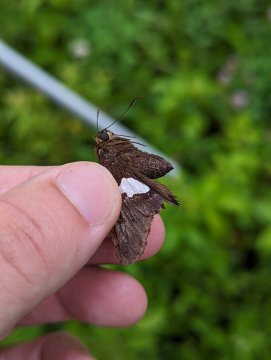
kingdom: Animalia
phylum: Arthropoda
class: Insecta
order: Lepidoptera
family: Hesperiidae
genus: Epargyreus
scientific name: Epargyreus clarus
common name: Silver-spotted Skipper
